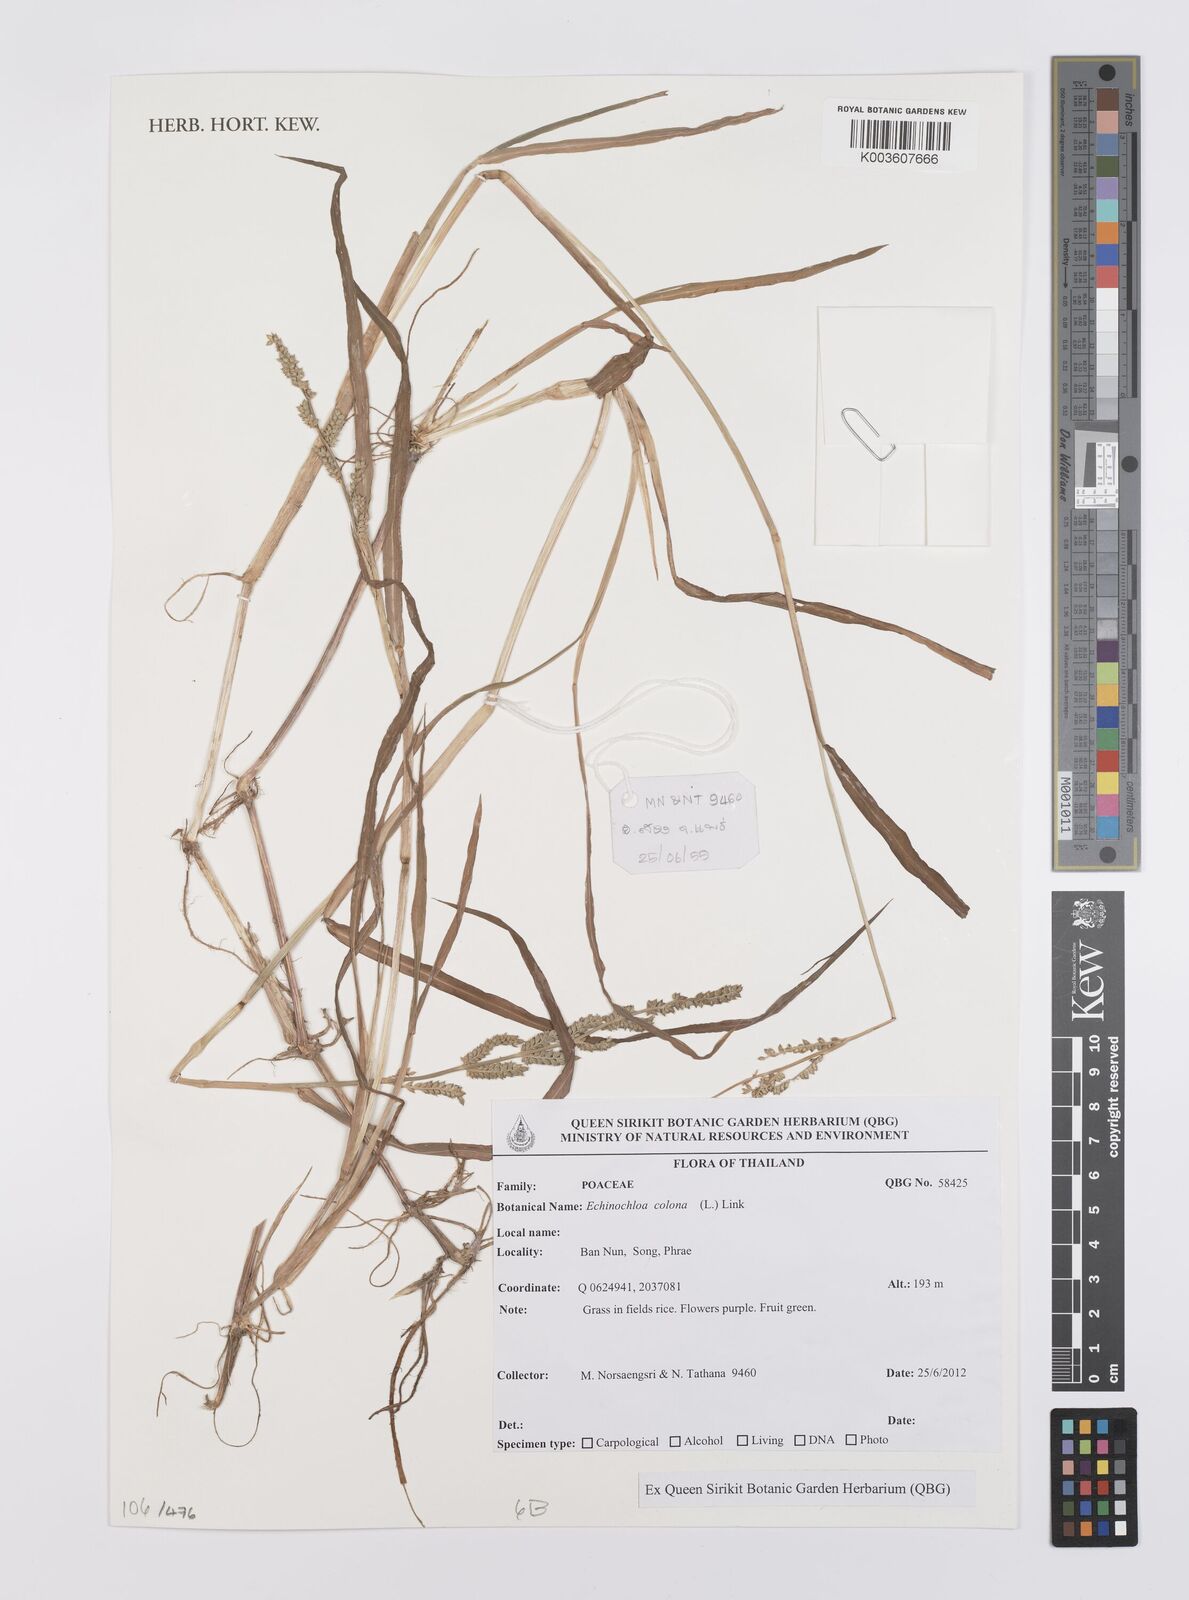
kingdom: Plantae
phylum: Tracheophyta
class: Liliopsida
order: Poales
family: Poaceae
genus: Echinochloa
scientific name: Echinochloa
